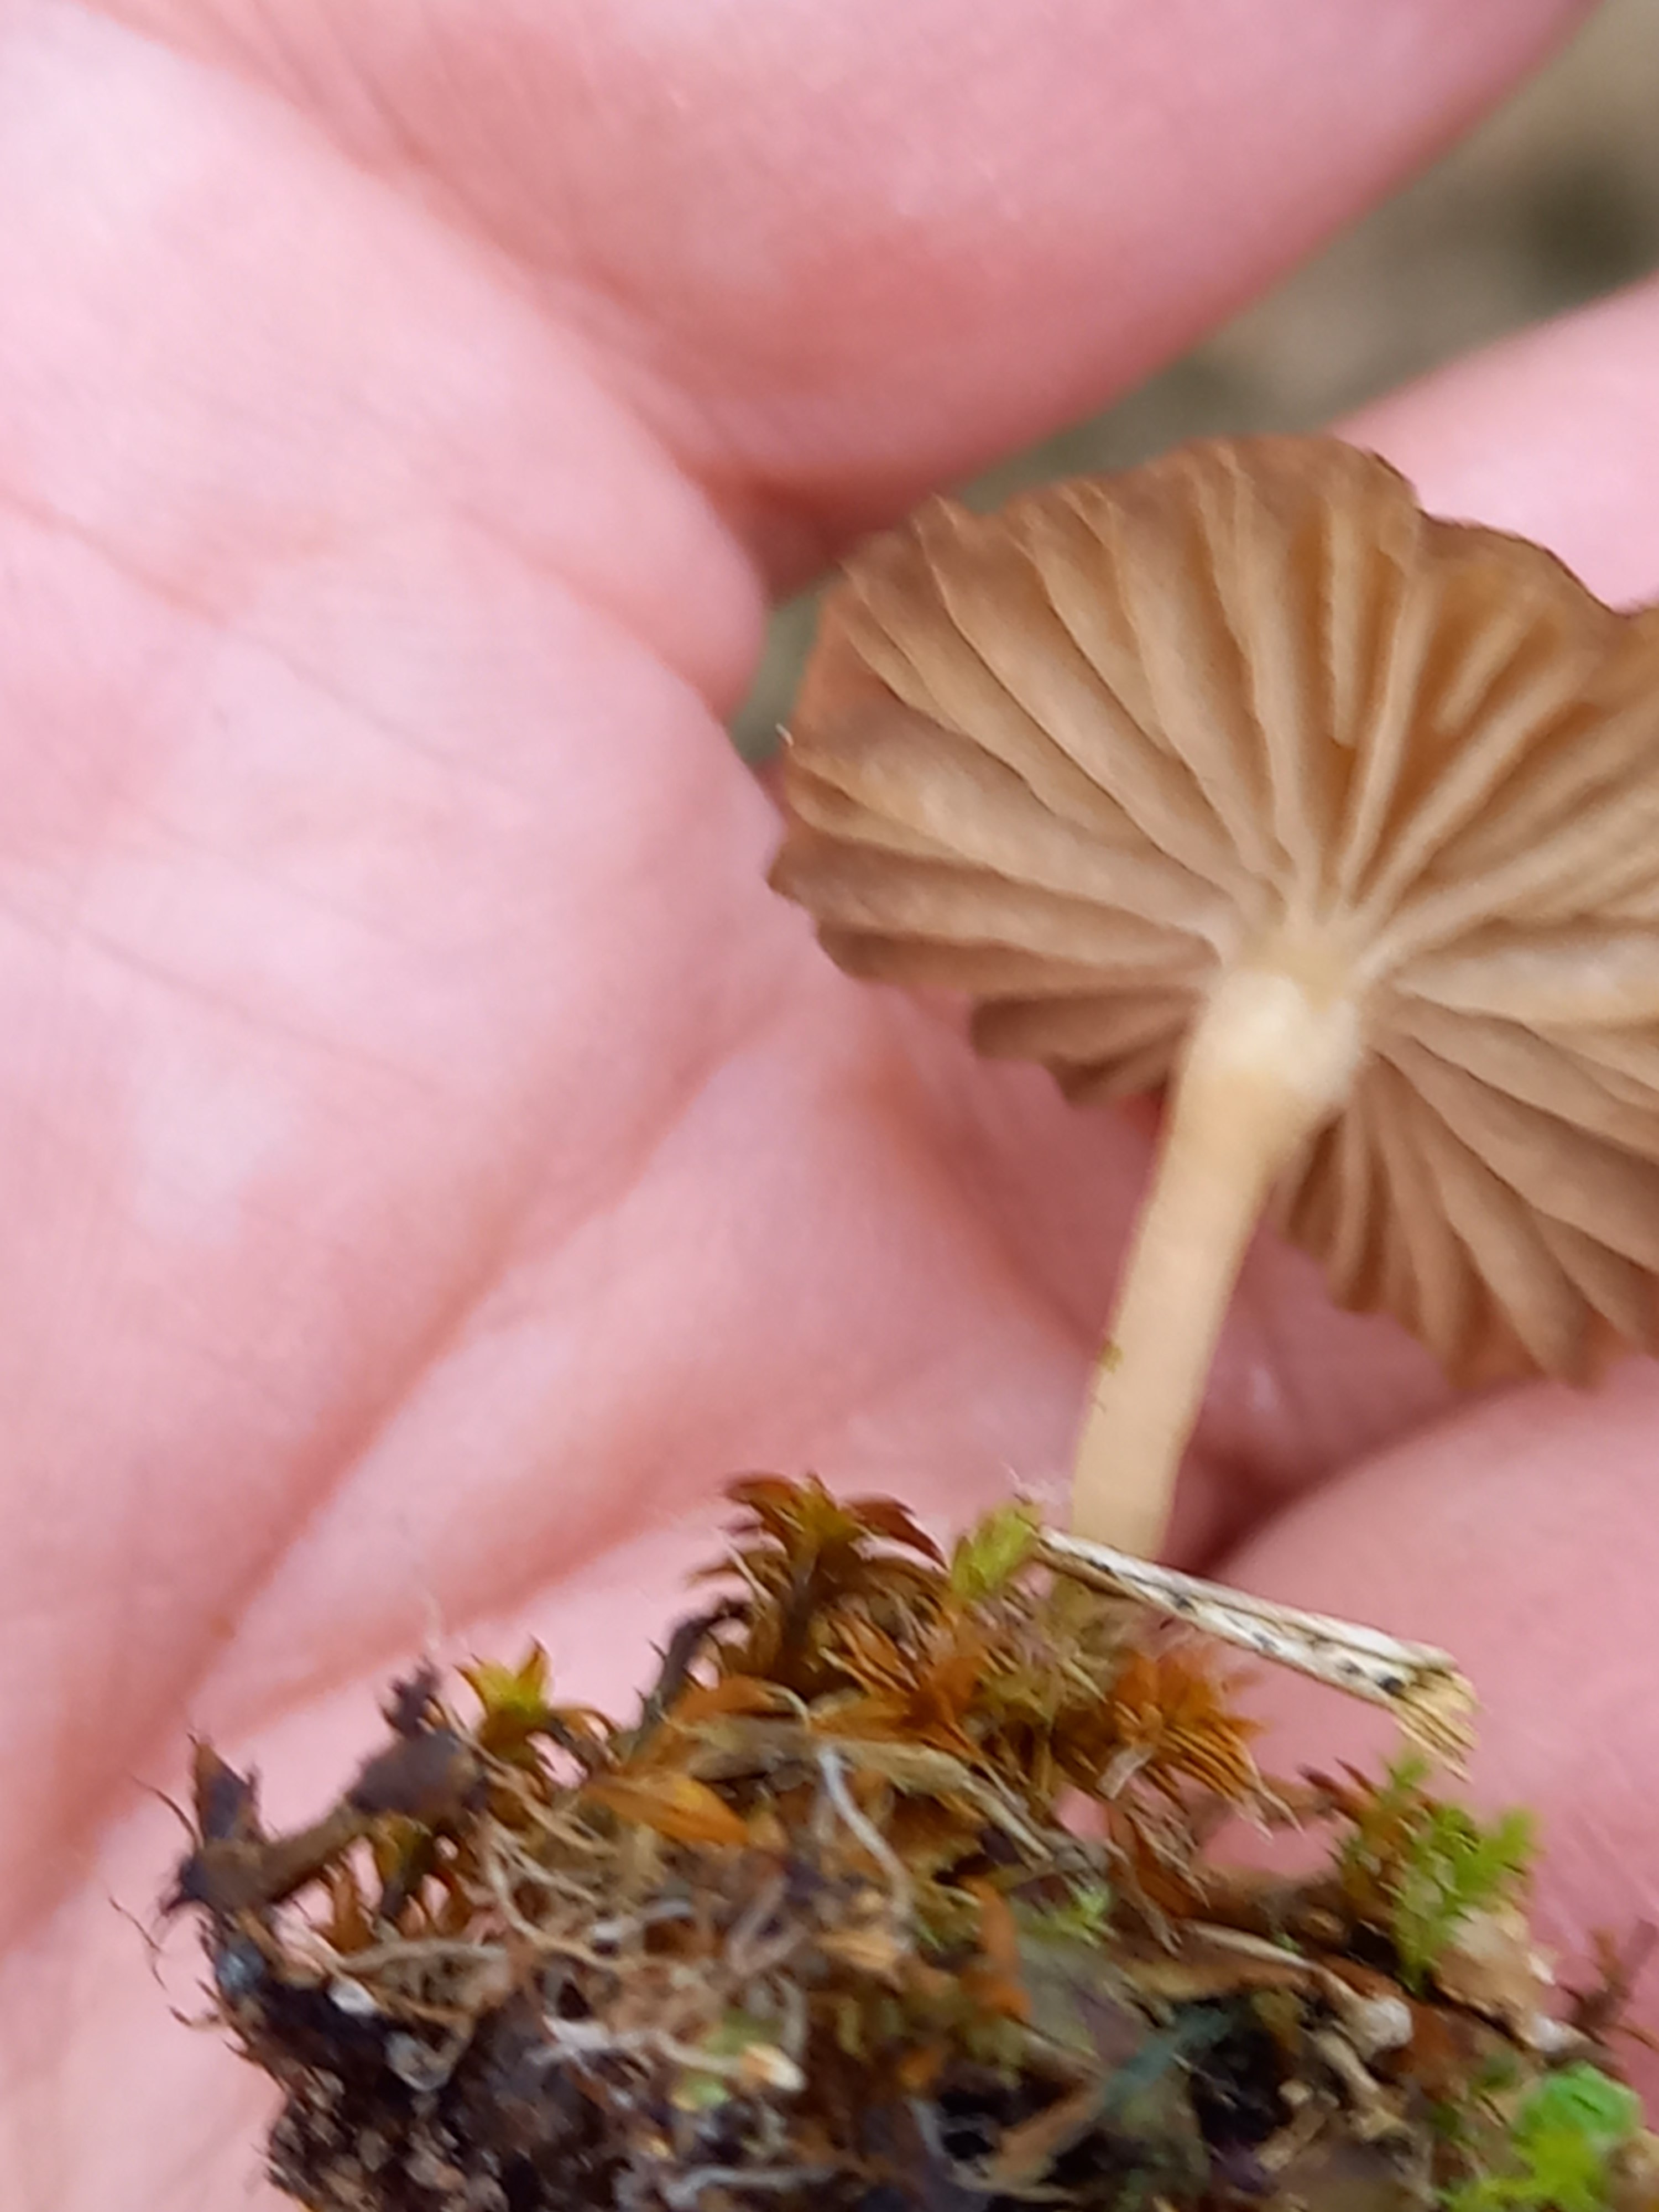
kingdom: Fungi
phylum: Basidiomycota
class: Agaricomycetes
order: Agaricales
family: Tricholomataceae
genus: Gamundia
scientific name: Gamundia xerophila
